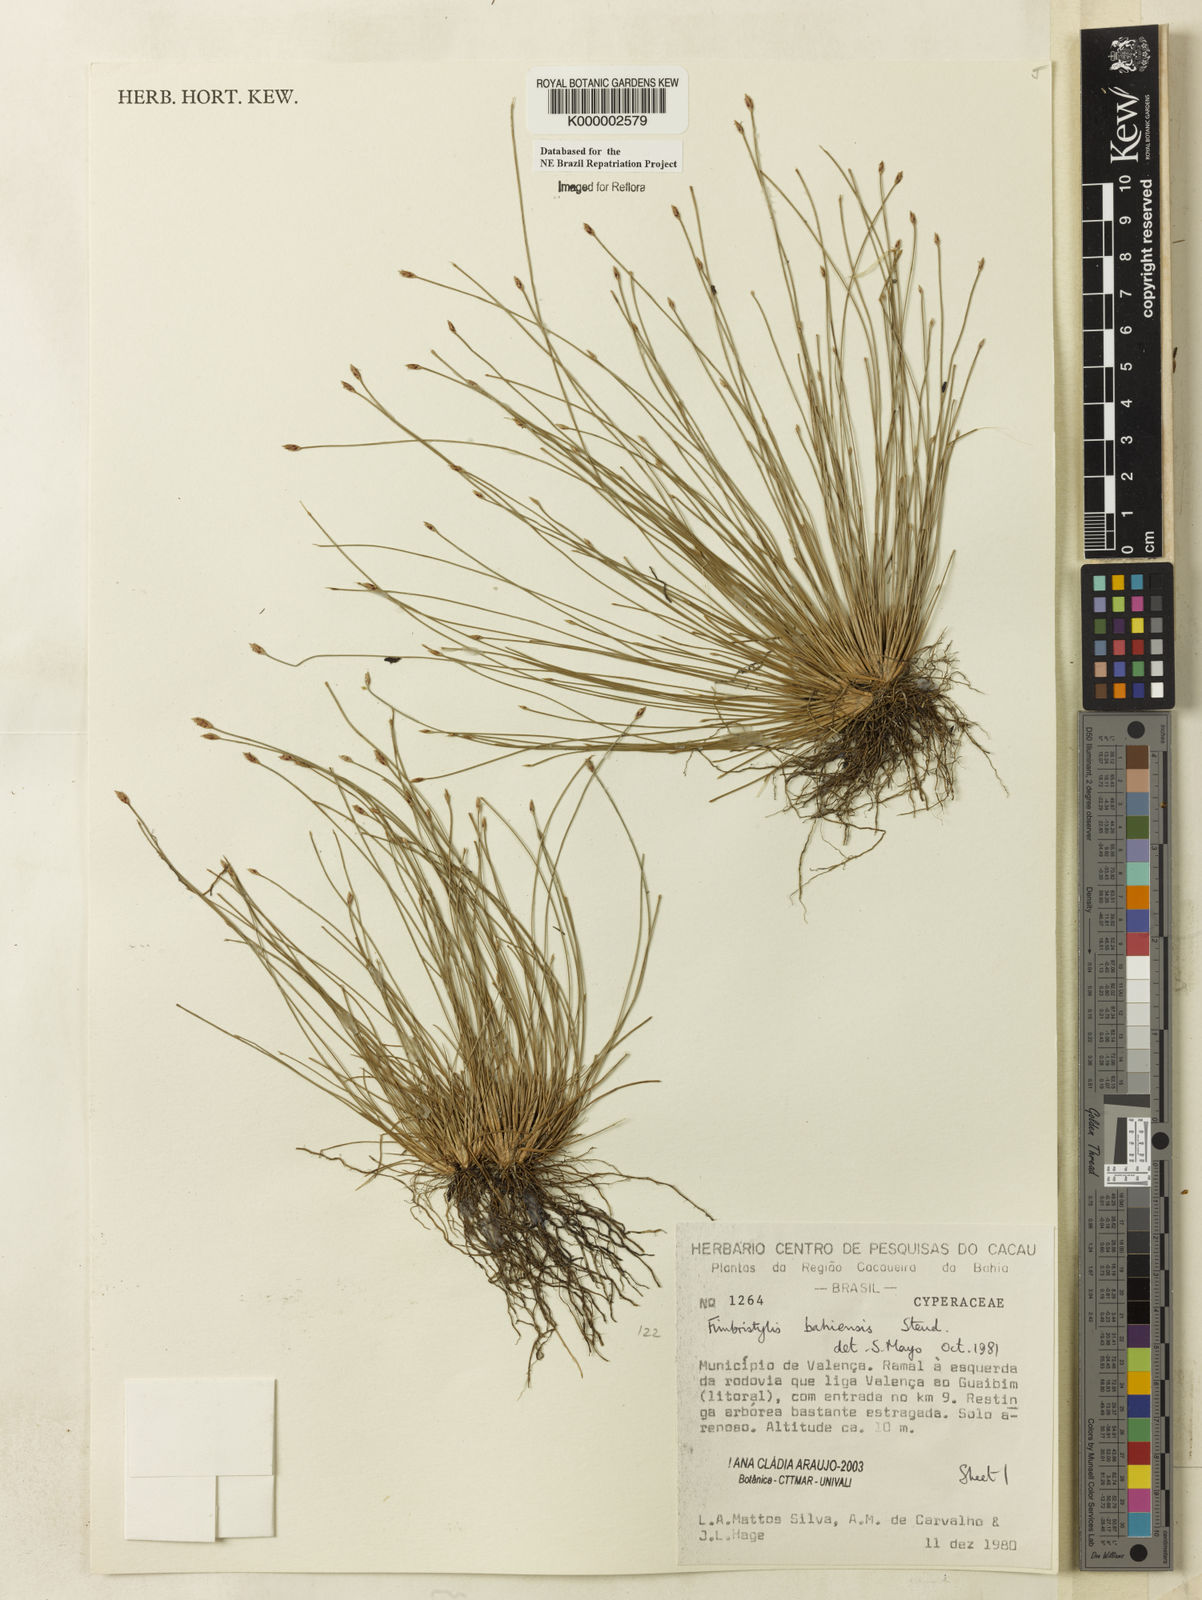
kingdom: Plantae
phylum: Tracheophyta
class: Liliopsida
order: Poales
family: Cyperaceae
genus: Fimbristylis
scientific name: Fimbristylis bahiensis
